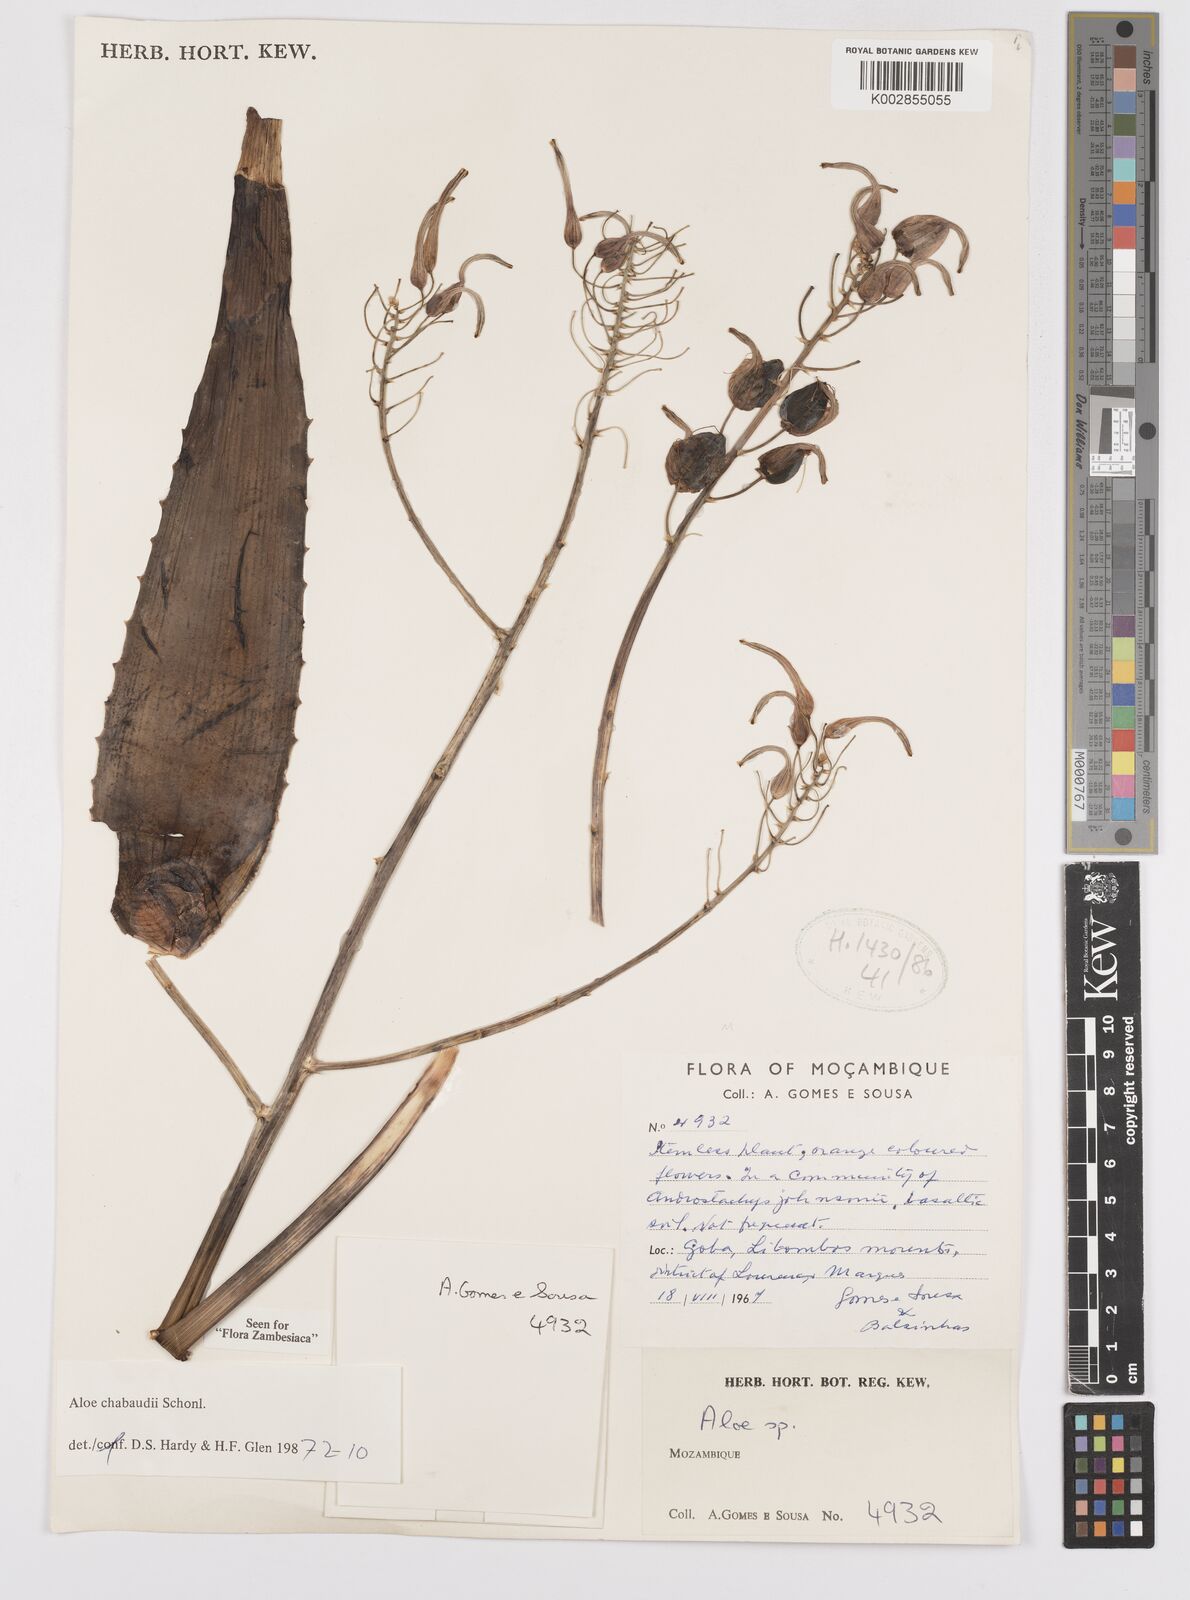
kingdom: Plantae
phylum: Tracheophyta
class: Liliopsida
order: Asparagales
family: Asphodelaceae
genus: Aloe
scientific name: Aloe chabaudii
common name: Chabaud's aloe
